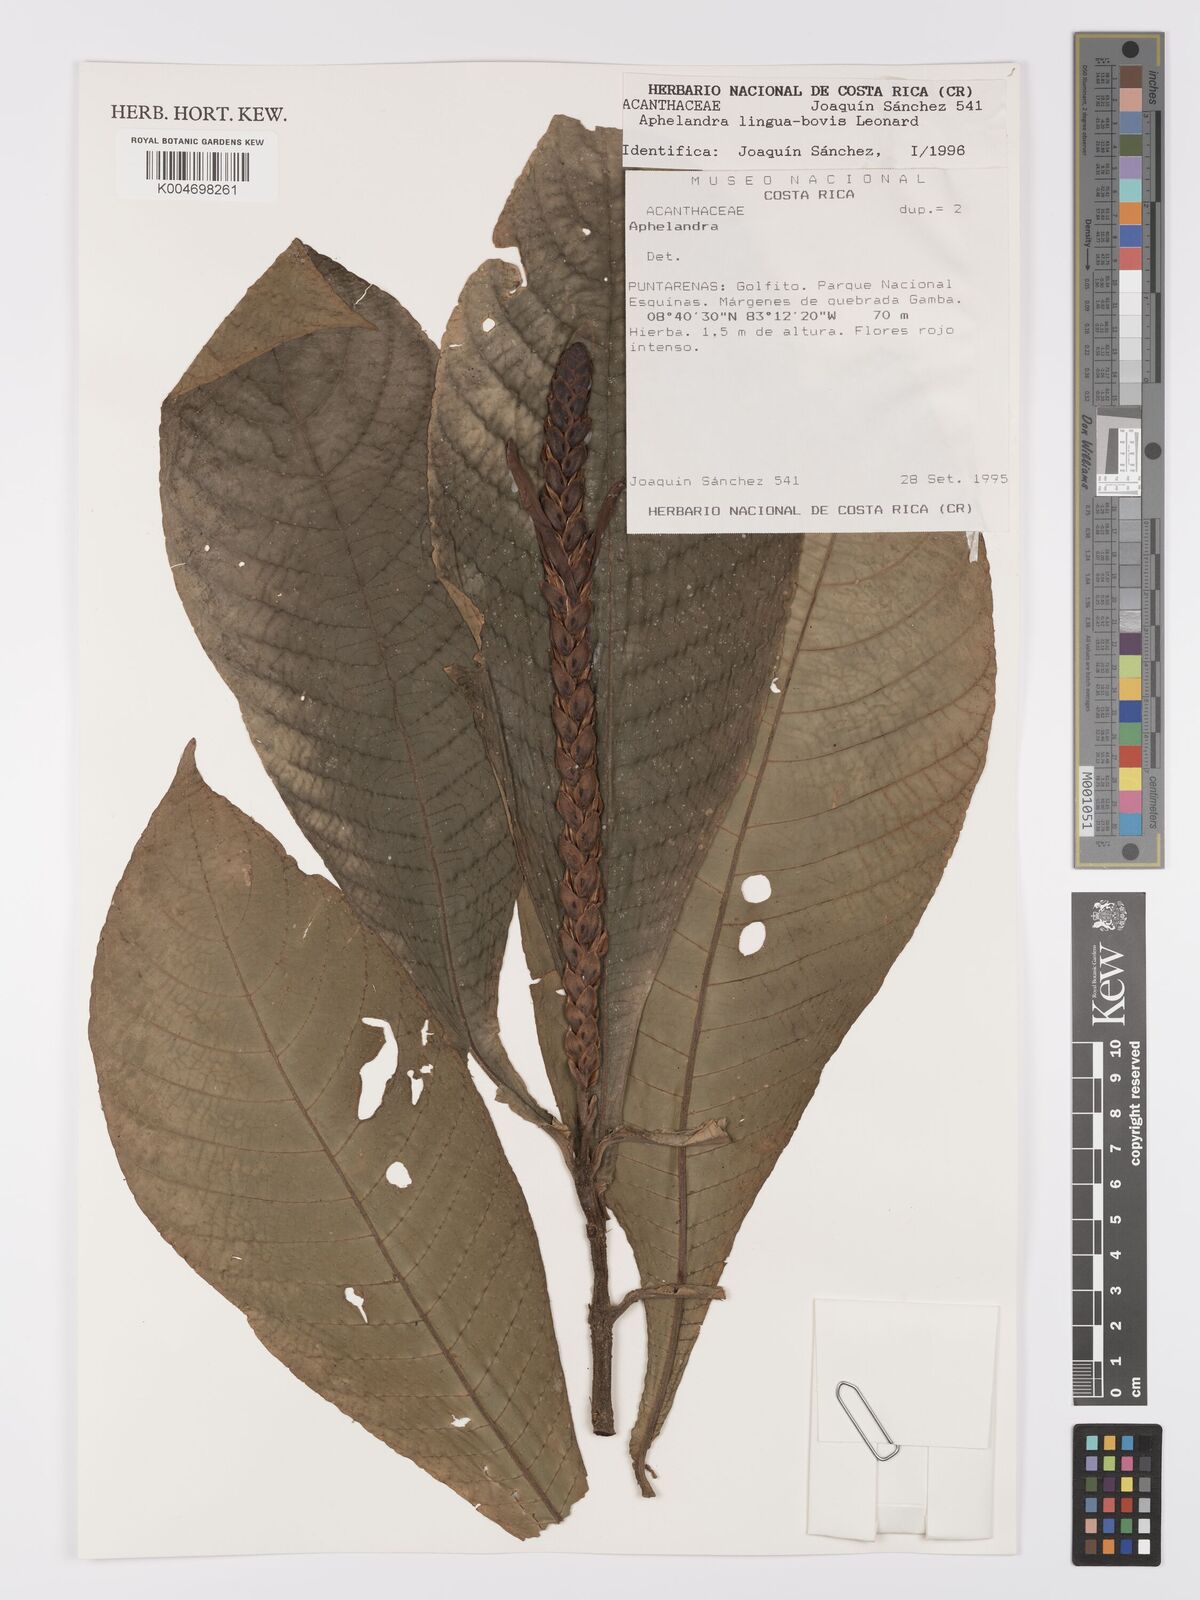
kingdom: Plantae
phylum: Tracheophyta
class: Magnoliopsida
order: Lamiales
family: Acanthaceae
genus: Aphelandra
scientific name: Aphelandra lingua-bovis
